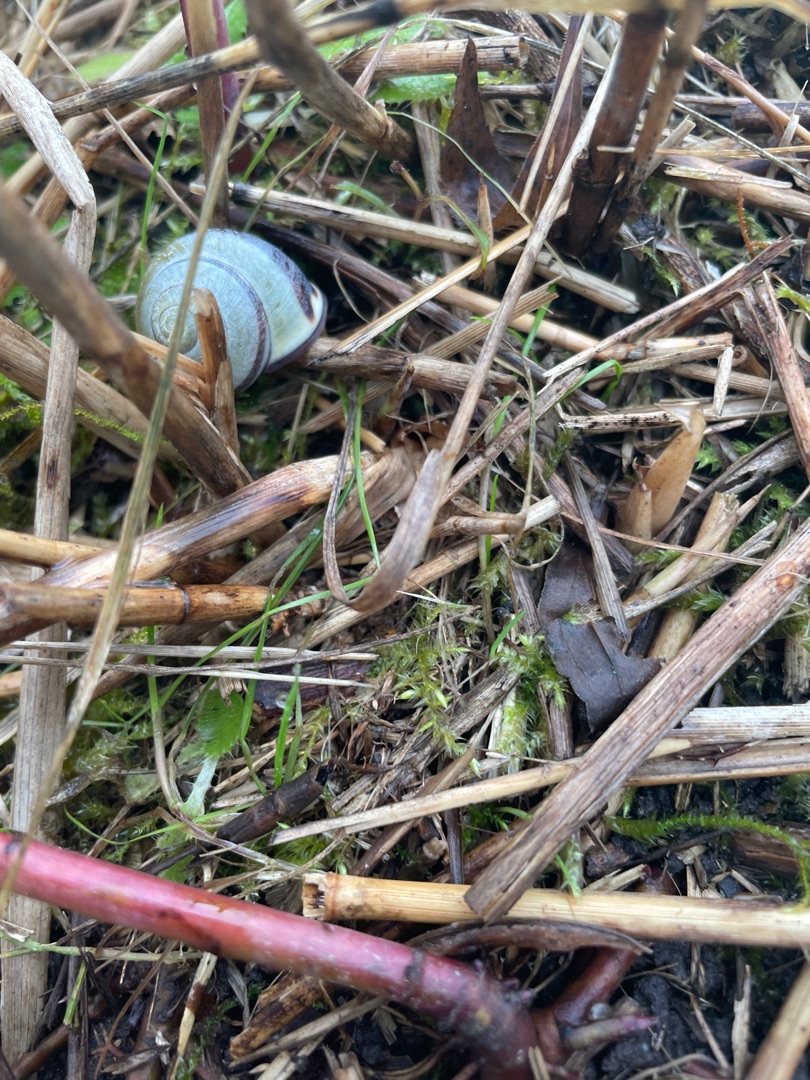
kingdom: Animalia
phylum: Mollusca
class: Gastropoda
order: Stylommatophora
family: Helicidae
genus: Cepaea
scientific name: Cepaea nemoralis
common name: Lundsnegl
